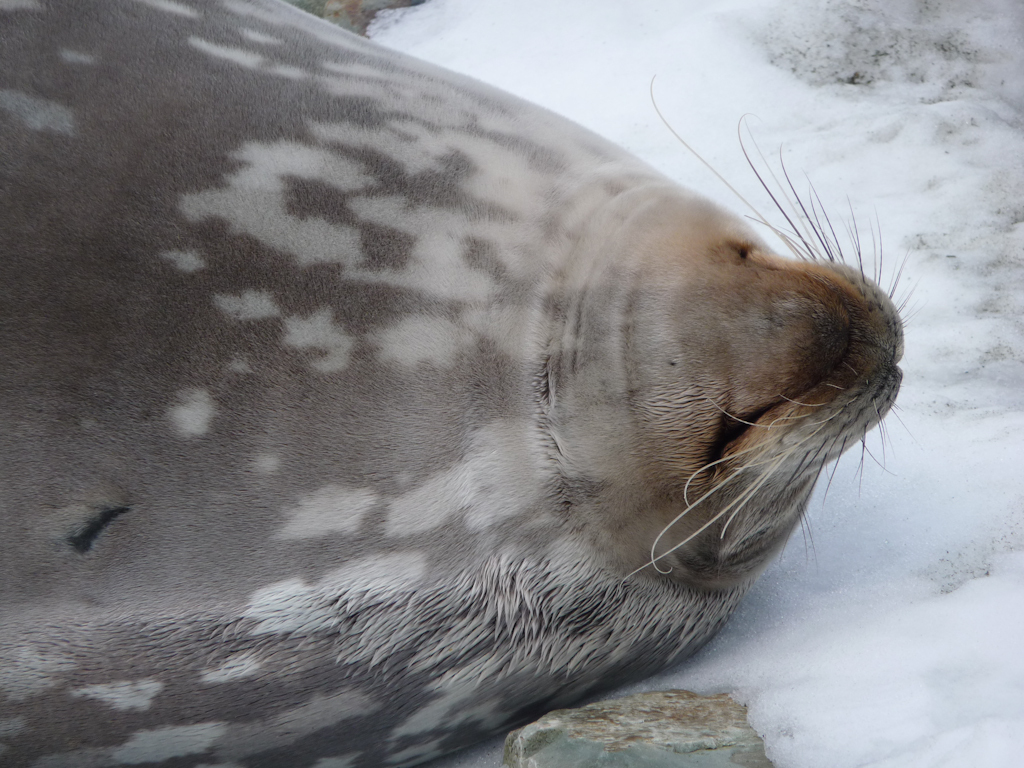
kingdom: Animalia
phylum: Chordata
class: Mammalia
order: Carnivora
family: Phocidae
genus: Leptonychotes
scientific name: Leptonychotes weddellii
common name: Weddell Seal
